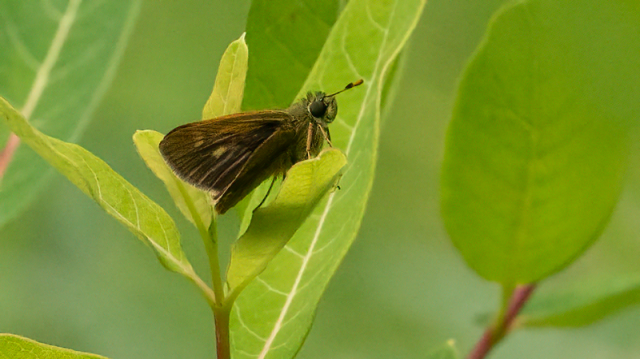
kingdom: Animalia
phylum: Arthropoda
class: Insecta
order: Lepidoptera
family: Hesperiidae
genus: Polites
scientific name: Polites egeremet
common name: Northern Broken-Dash
